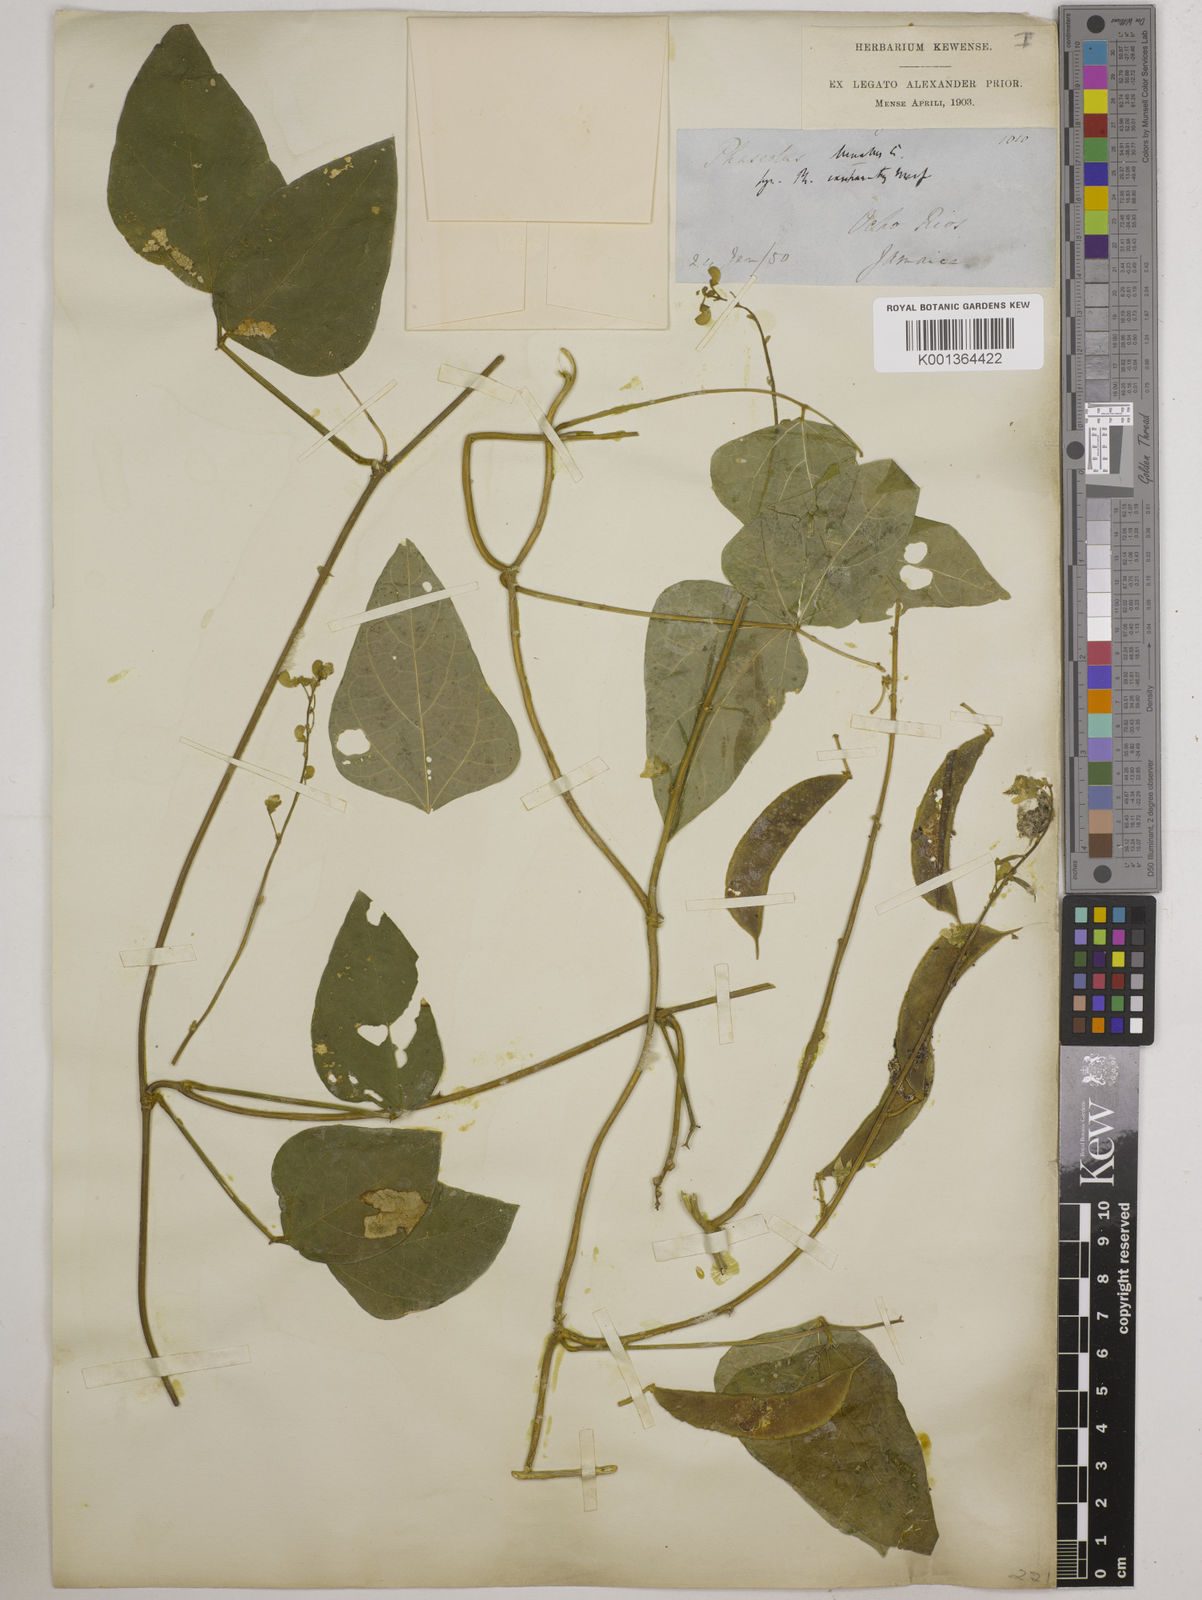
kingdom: Plantae
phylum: Tracheophyta
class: Magnoliopsida
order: Fabales
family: Fabaceae
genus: Phaseolus
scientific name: Phaseolus lunatus
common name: Sieva bean
